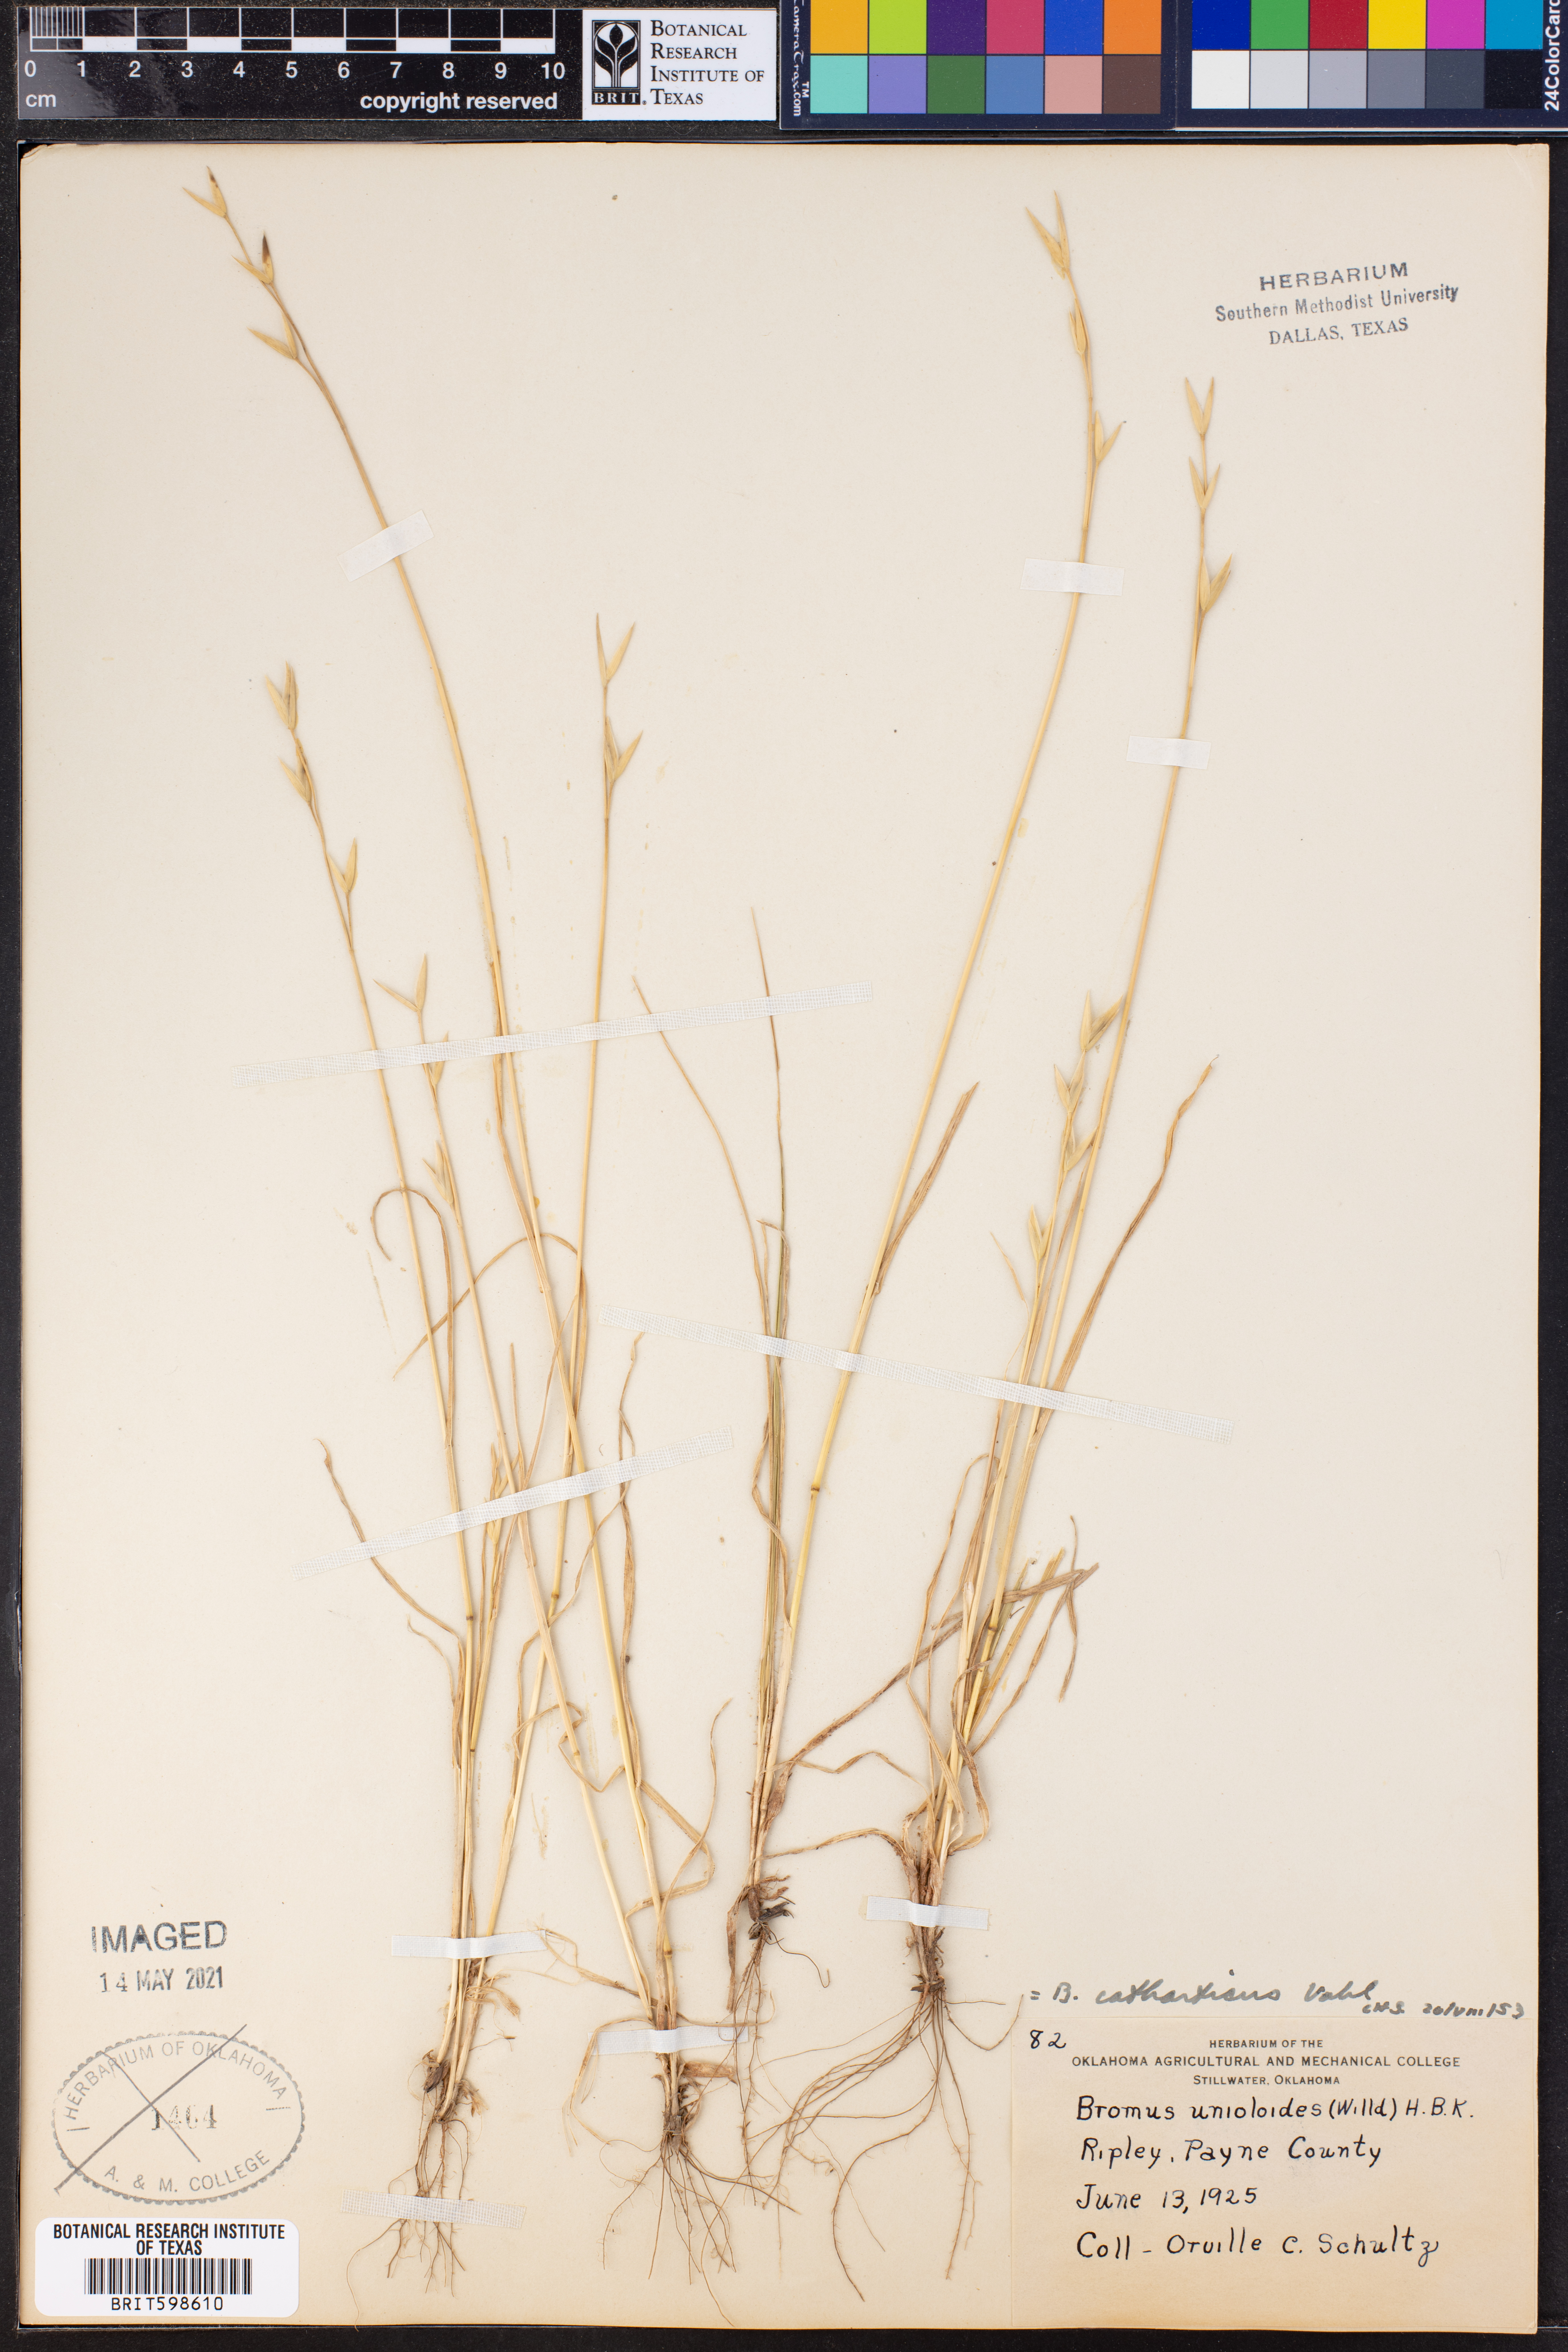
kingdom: Plantae
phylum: Tracheophyta
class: Liliopsida
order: Poales
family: Poaceae
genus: Bromus
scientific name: Bromus catharticus
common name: Rescuegrass
